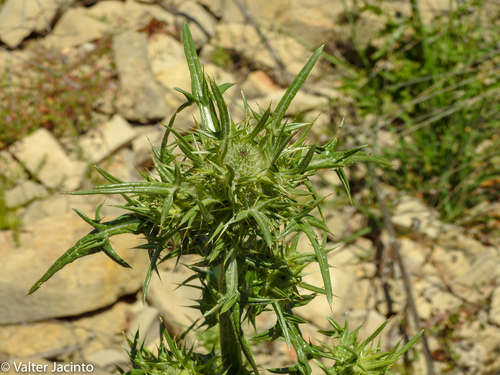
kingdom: Plantae
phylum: Tracheophyta
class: Magnoliopsida
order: Asterales
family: Asteraceae
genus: Notobasis
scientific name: Notobasis syriaca
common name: Syrian thistle
